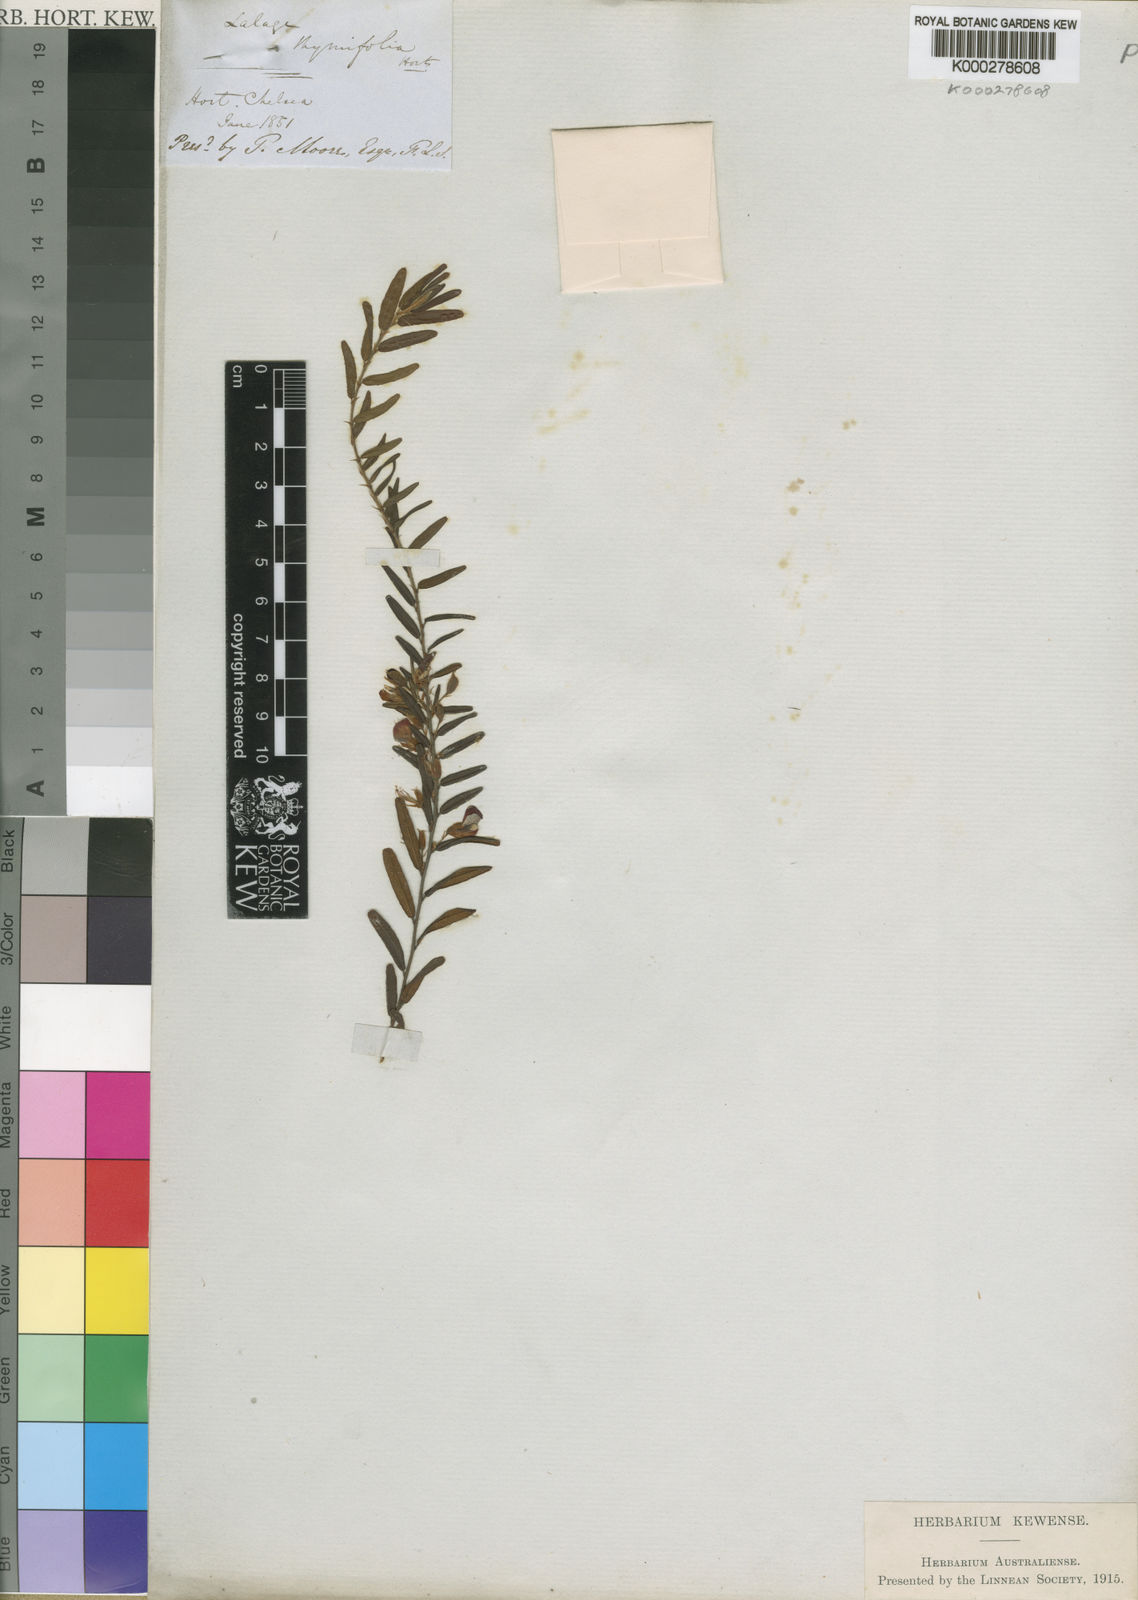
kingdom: Plantae
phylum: Tracheophyta
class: Magnoliopsida
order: Fabales
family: Fabaceae
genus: Bossiaea
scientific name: Bossiaea
